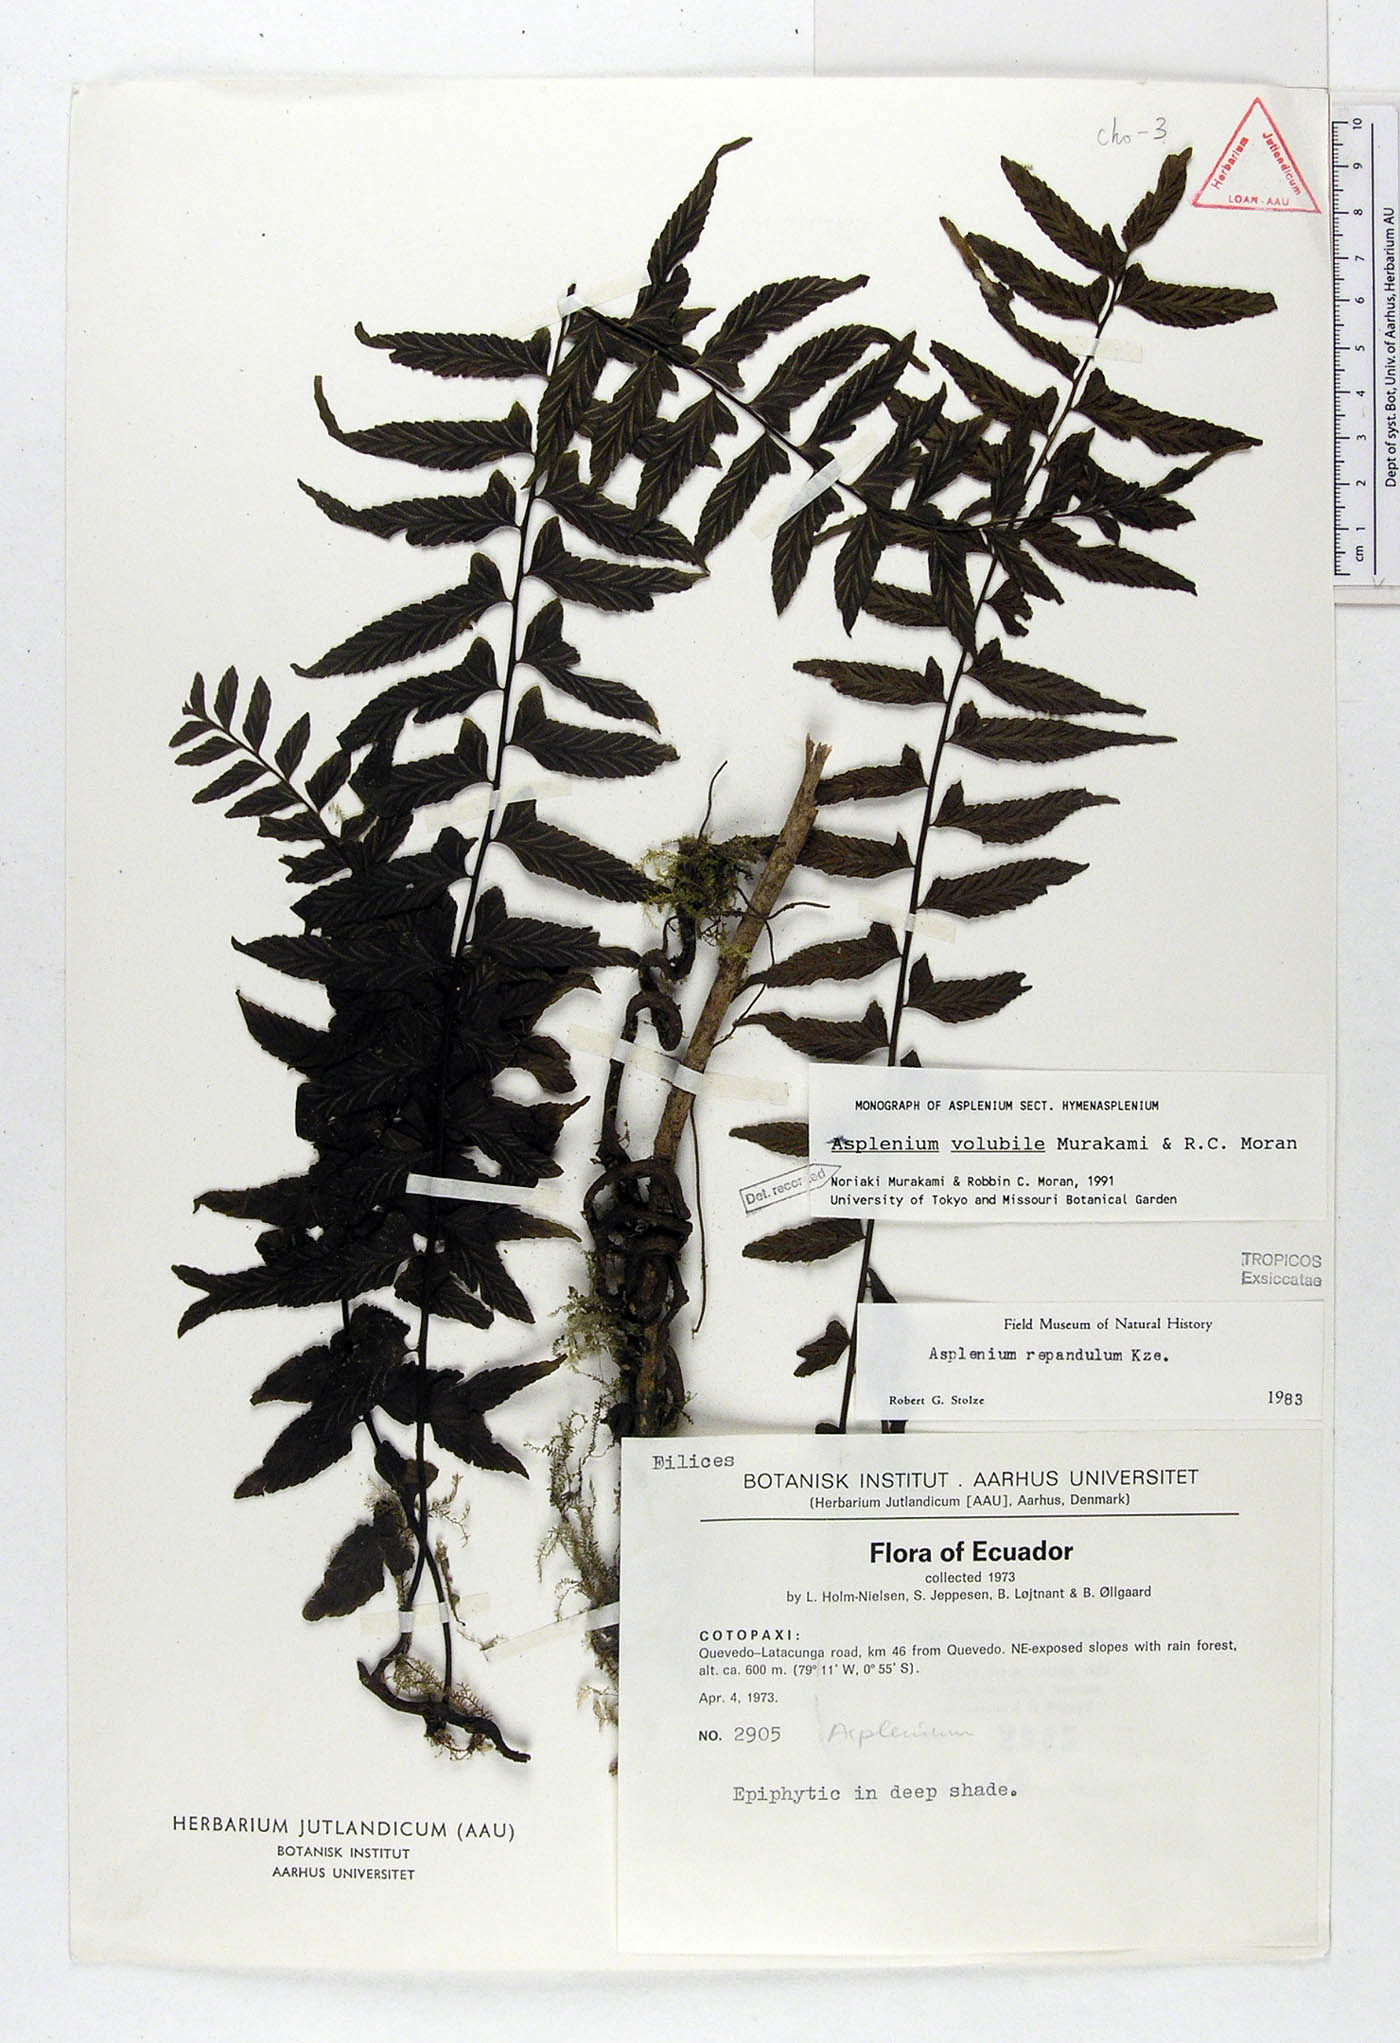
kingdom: Plantae
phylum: Tracheophyta
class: Polypodiopsida
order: Polypodiales
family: Aspleniaceae
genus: Hymenasplenium
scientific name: Hymenasplenium volubile
